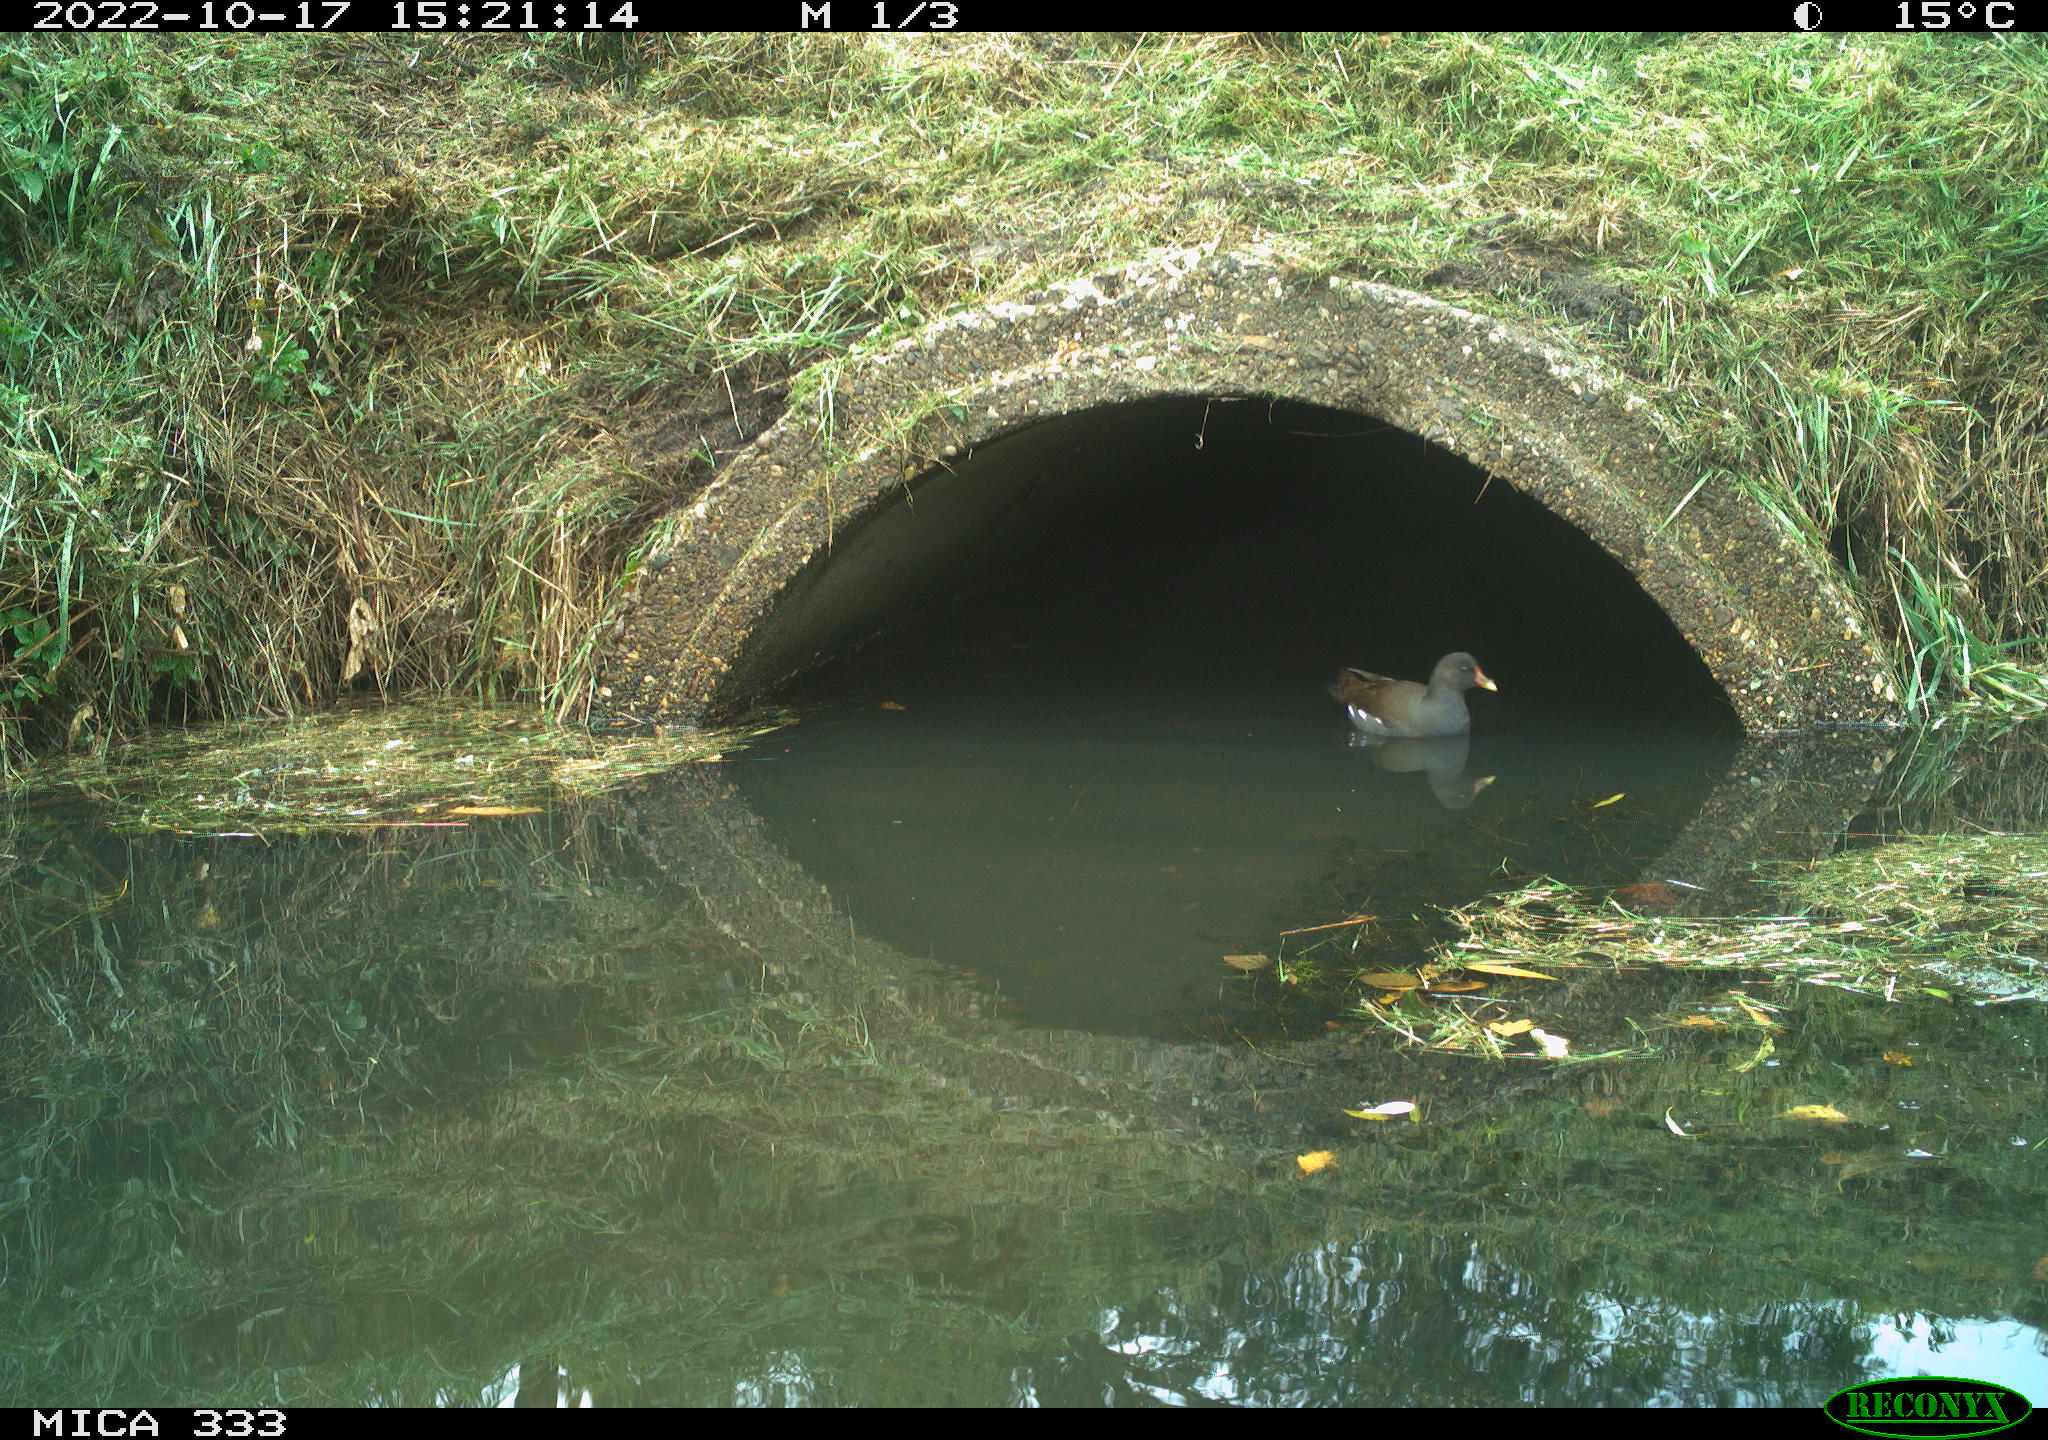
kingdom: Animalia
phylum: Chordata
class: Aves
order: Gruiformes
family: Rallidae
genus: Gallinula
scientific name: Gallinula chloropus
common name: Common moorhen
